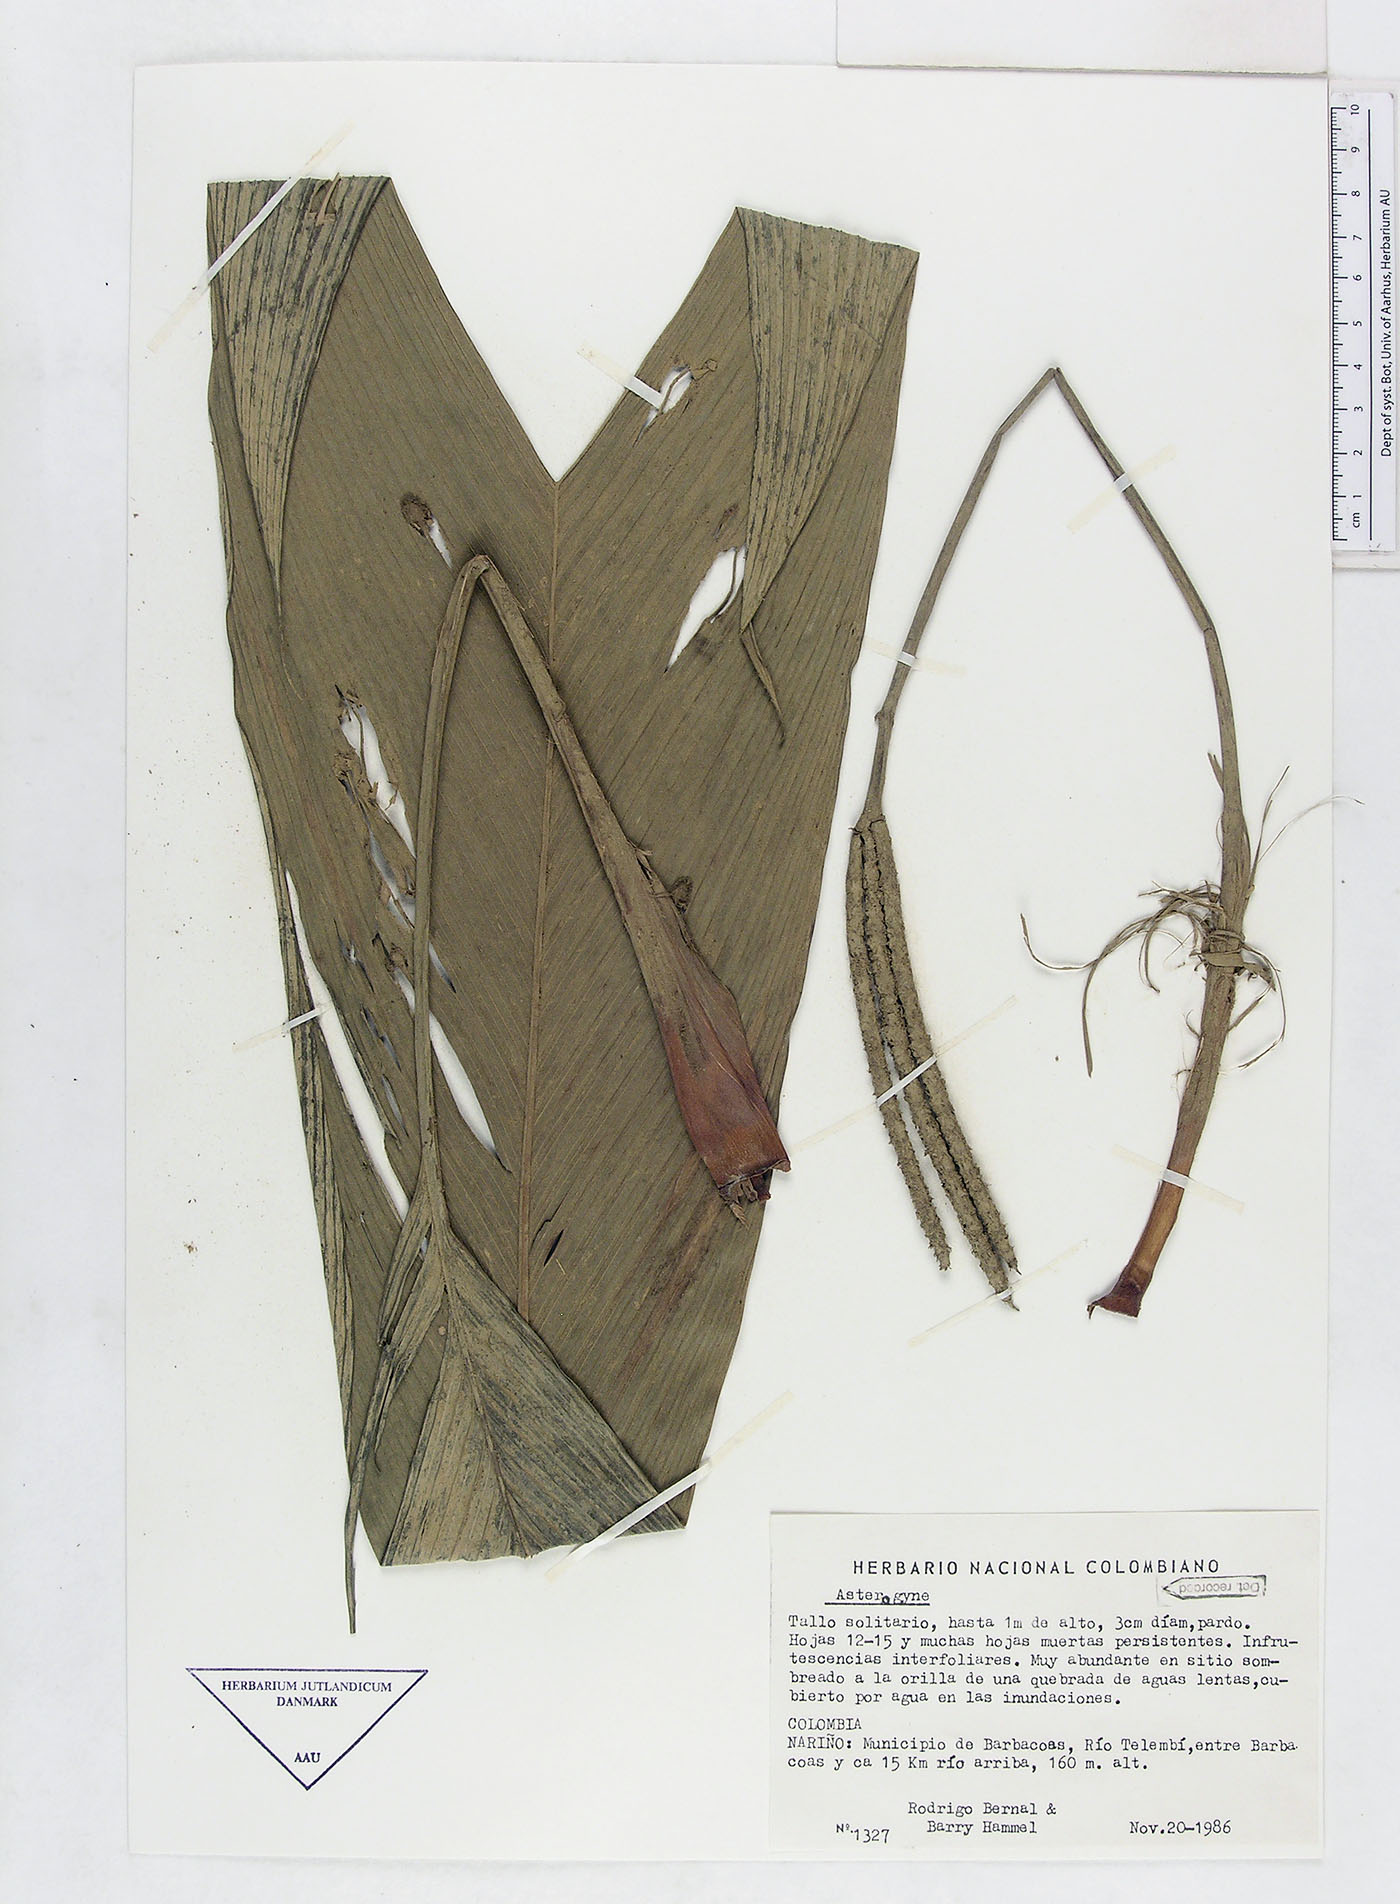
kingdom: Plantae
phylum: Tracheophyta
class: Liliopsida
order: Arecales
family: Arecaceae
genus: Asterogyne
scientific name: Asterogyne
